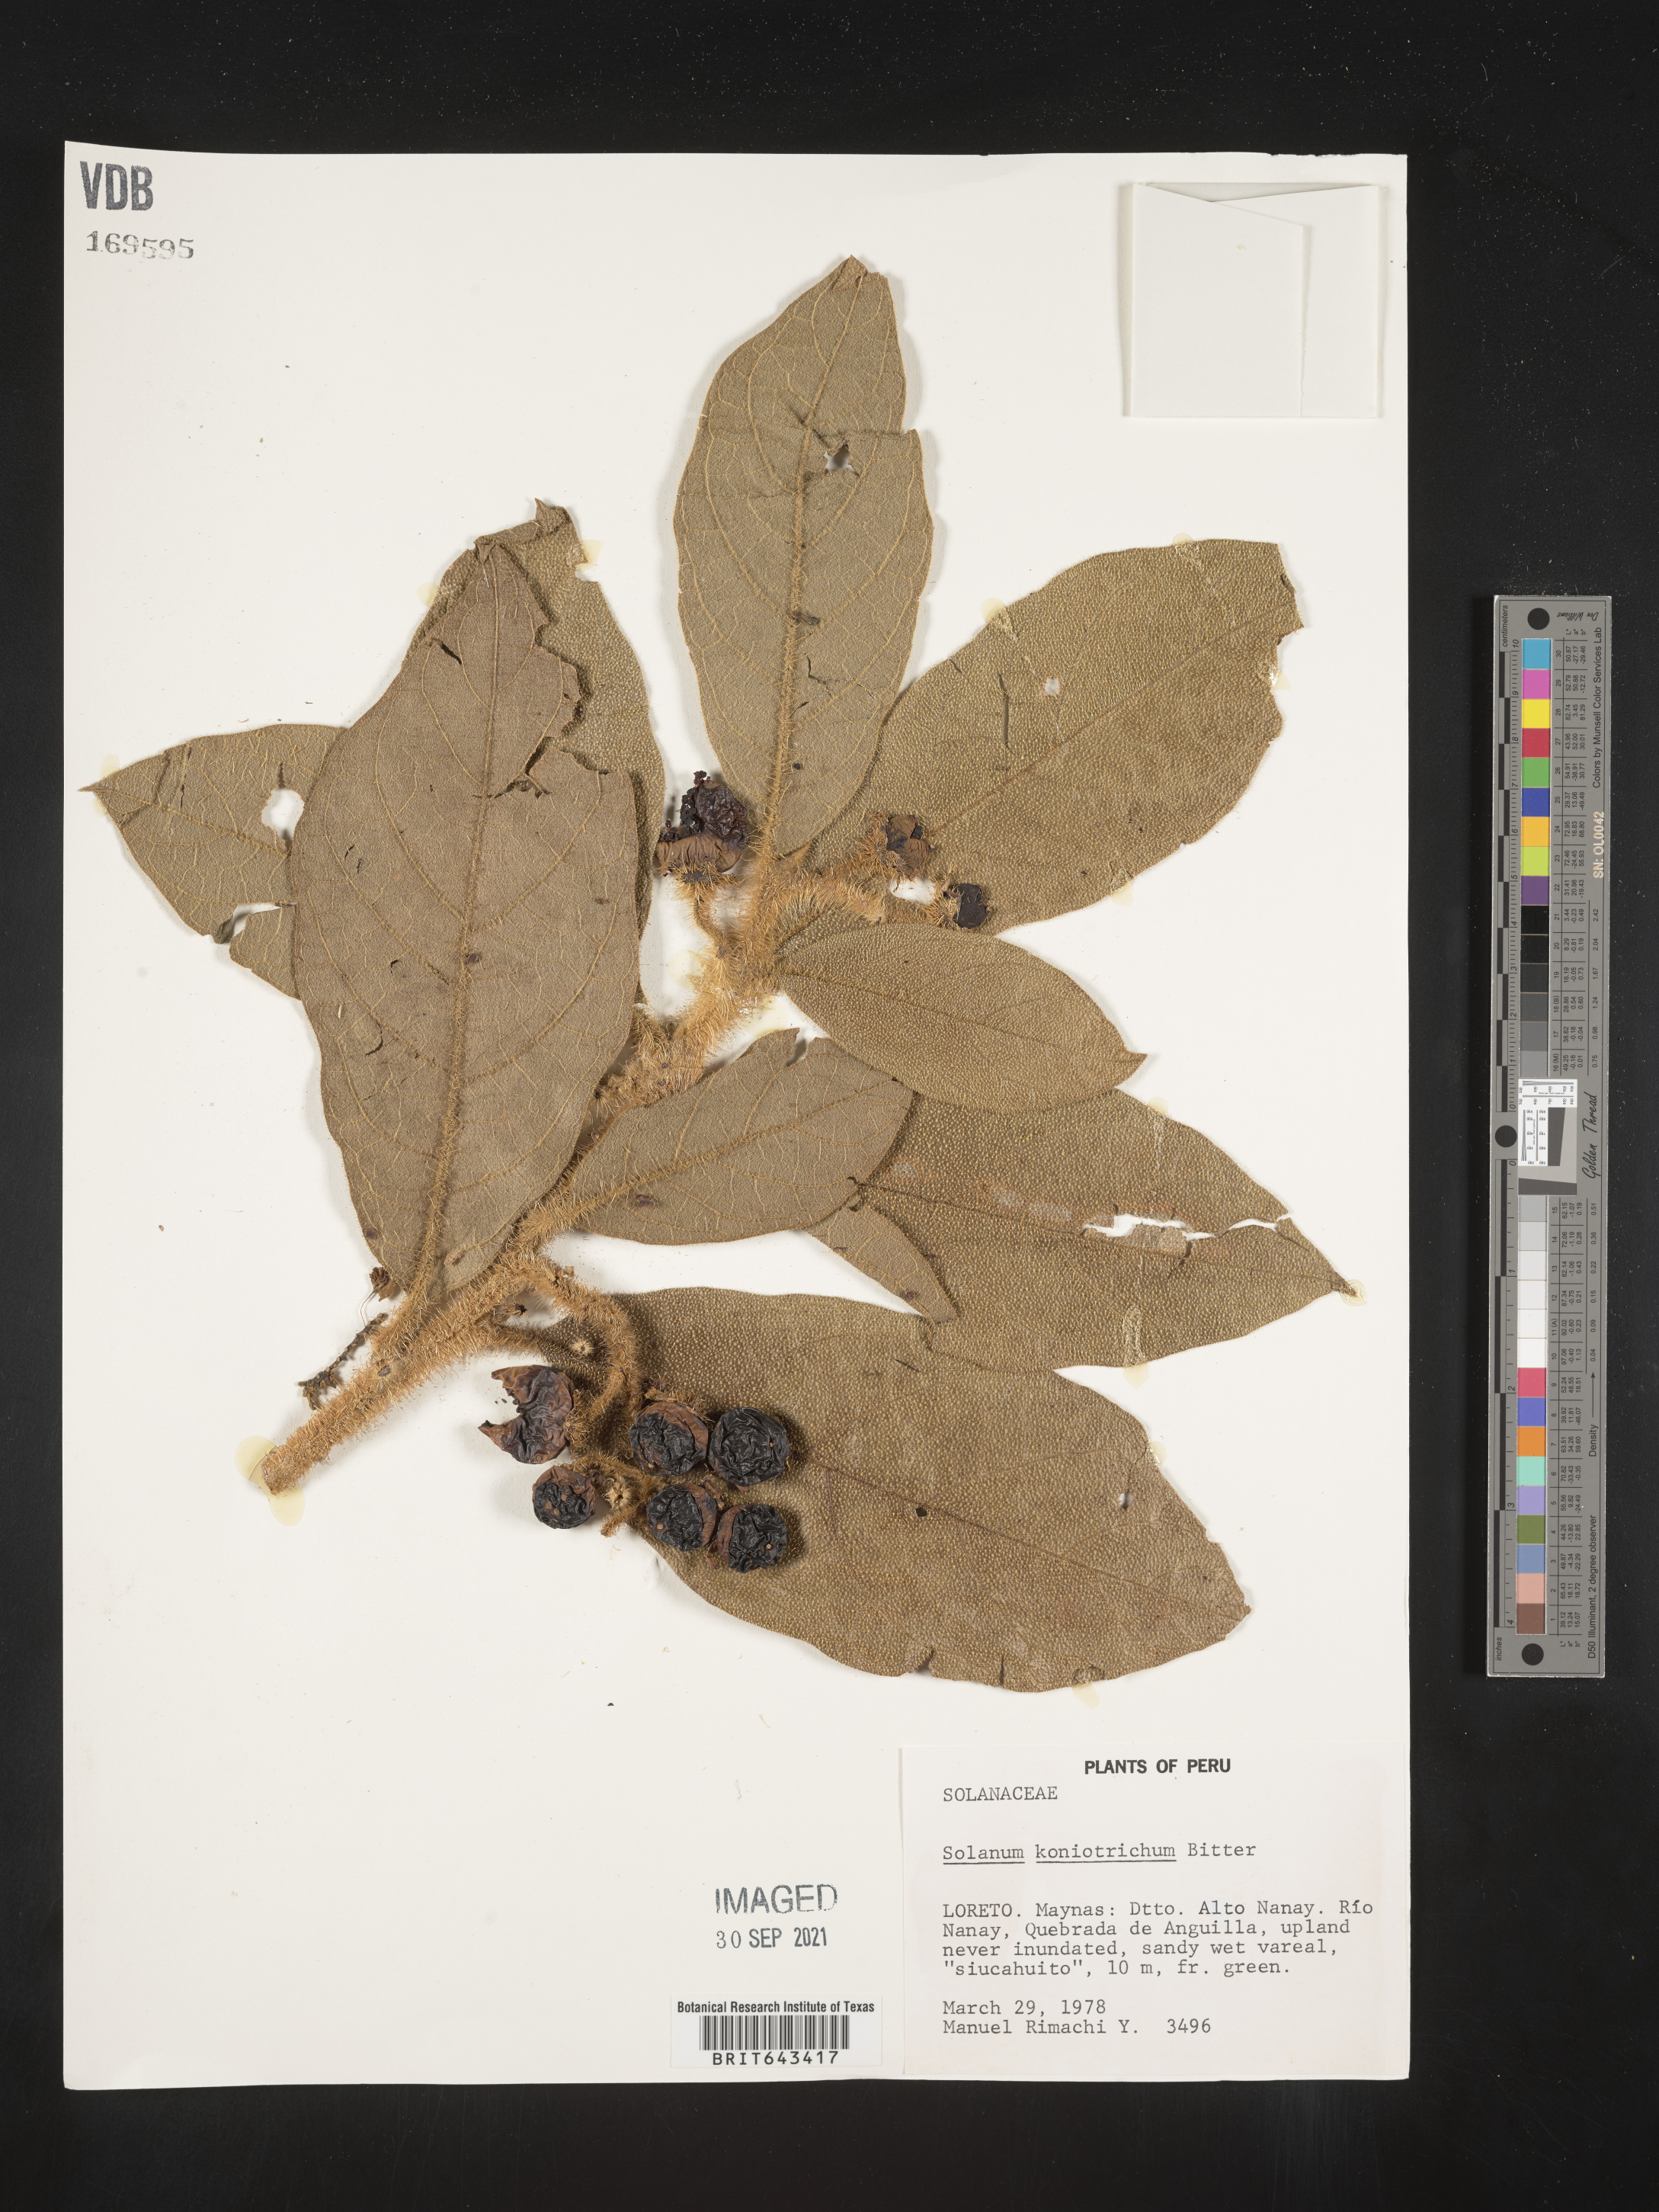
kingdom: Plantae
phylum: Tracheophyta
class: Magnoliopsida
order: Solanales
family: Solanaceae
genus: Solanum
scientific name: Solanum
